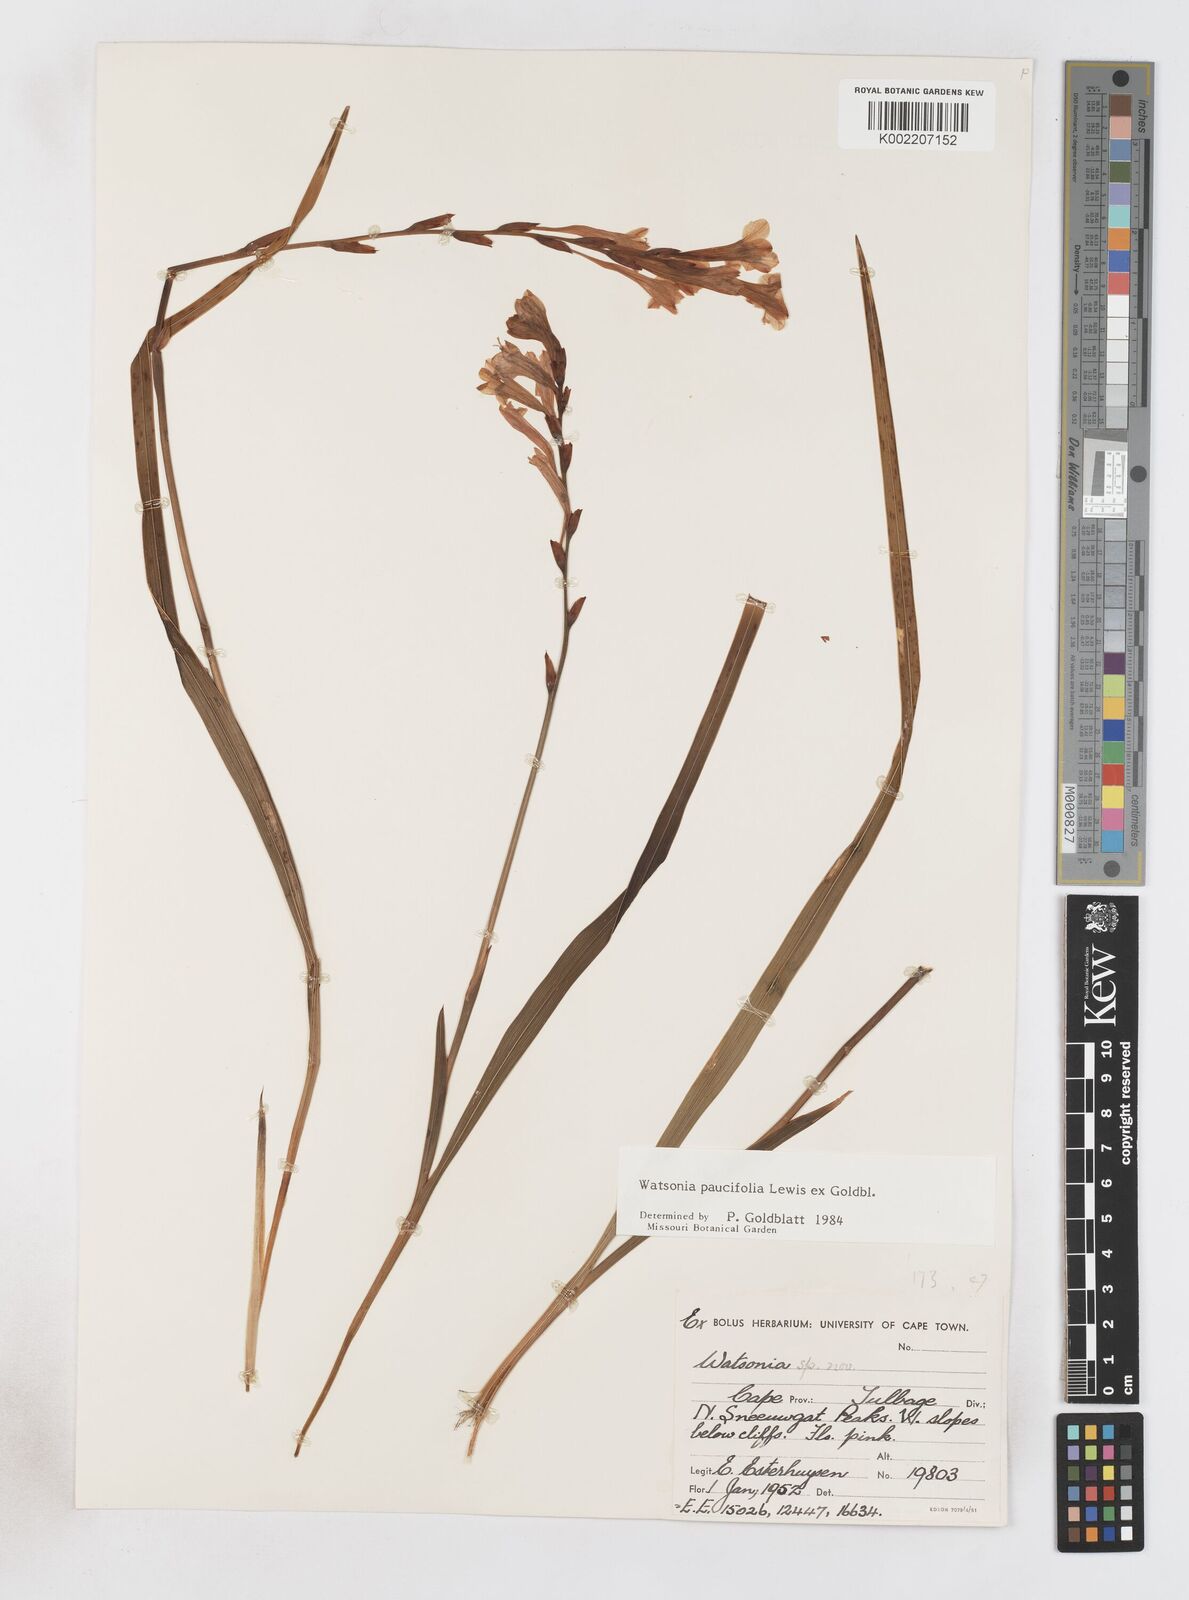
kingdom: Plantae
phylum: Tracheophyta
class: Liliopsida
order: Asparagales
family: Iridaceae
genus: Watsonia
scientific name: Watsonia distans
